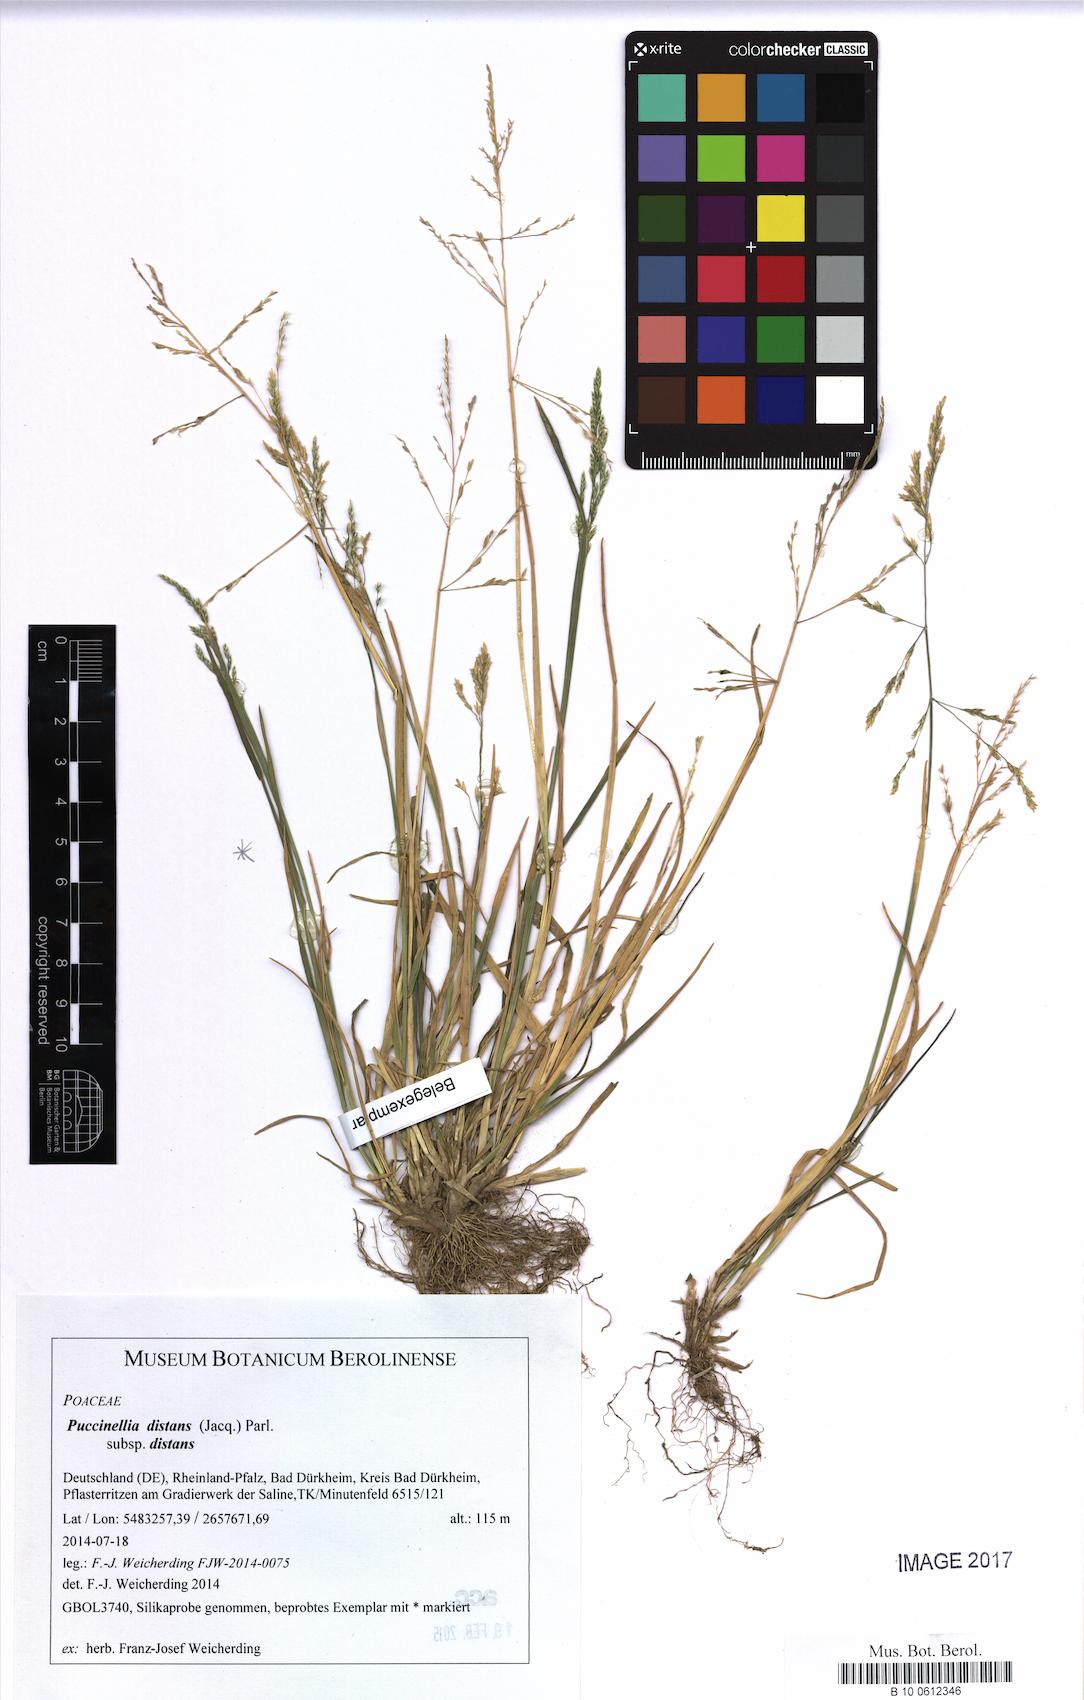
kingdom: Plantae
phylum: Tracheophyta
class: Liliopsida
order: Poales
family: Poaceae
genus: Puccinellia
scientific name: Puccinellia distans
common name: Weeping alkaligrass
